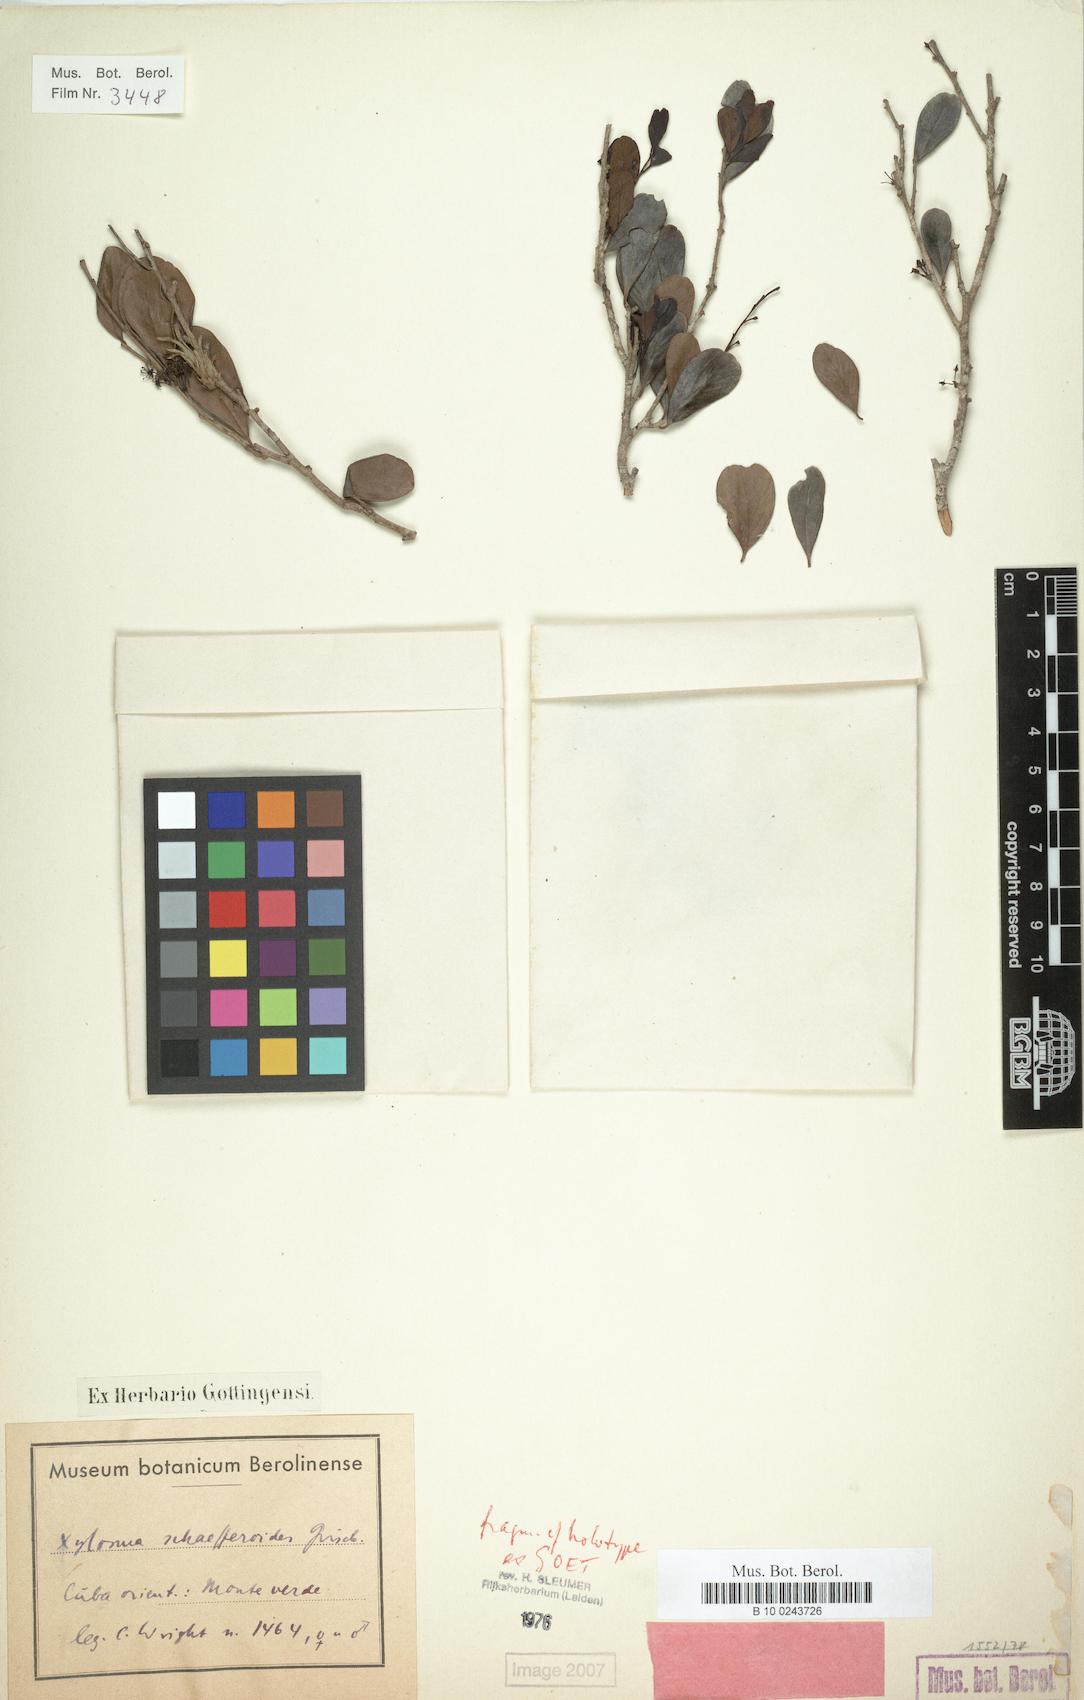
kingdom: Plantae
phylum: Tracheophyta
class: Magnoliopsida
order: Malpighiales
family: Salicaceae
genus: Xylosma
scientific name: Xylosma schaefferioides
